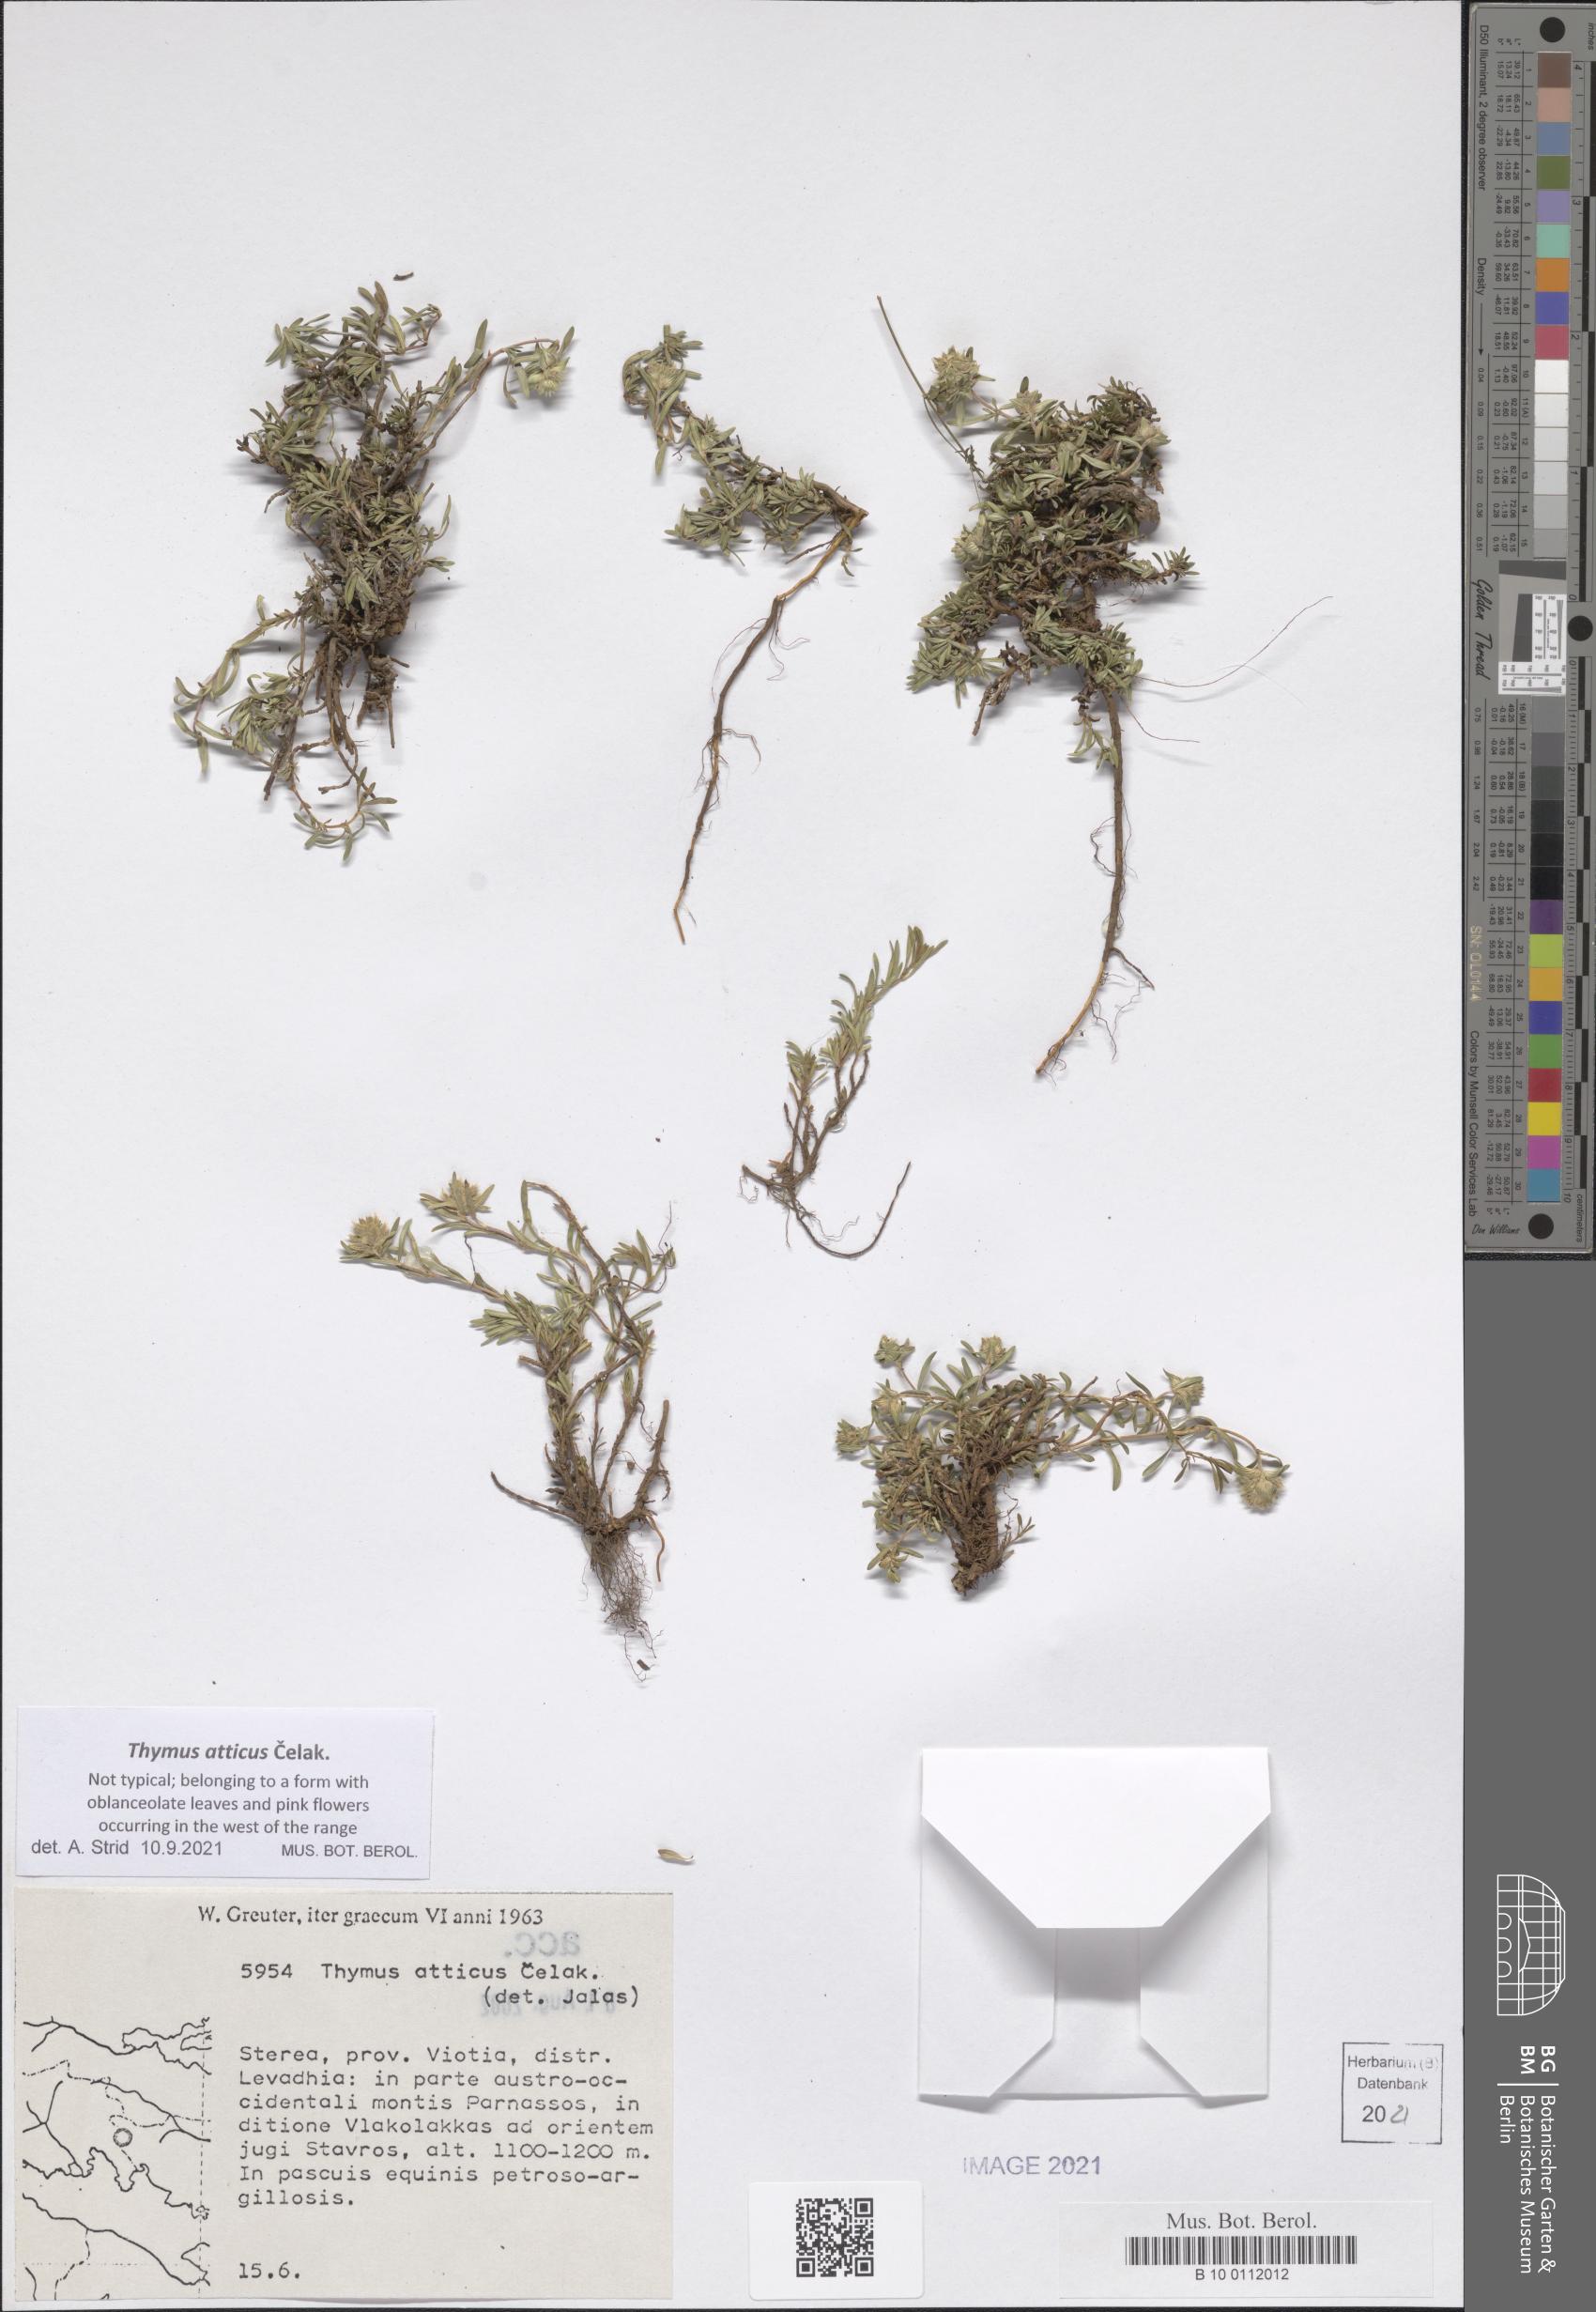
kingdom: Plantae
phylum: Tracheophyta
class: Magnoliopsida
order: Lamiales
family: Lamiaceae
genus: Thymus
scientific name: Thymus atticus
